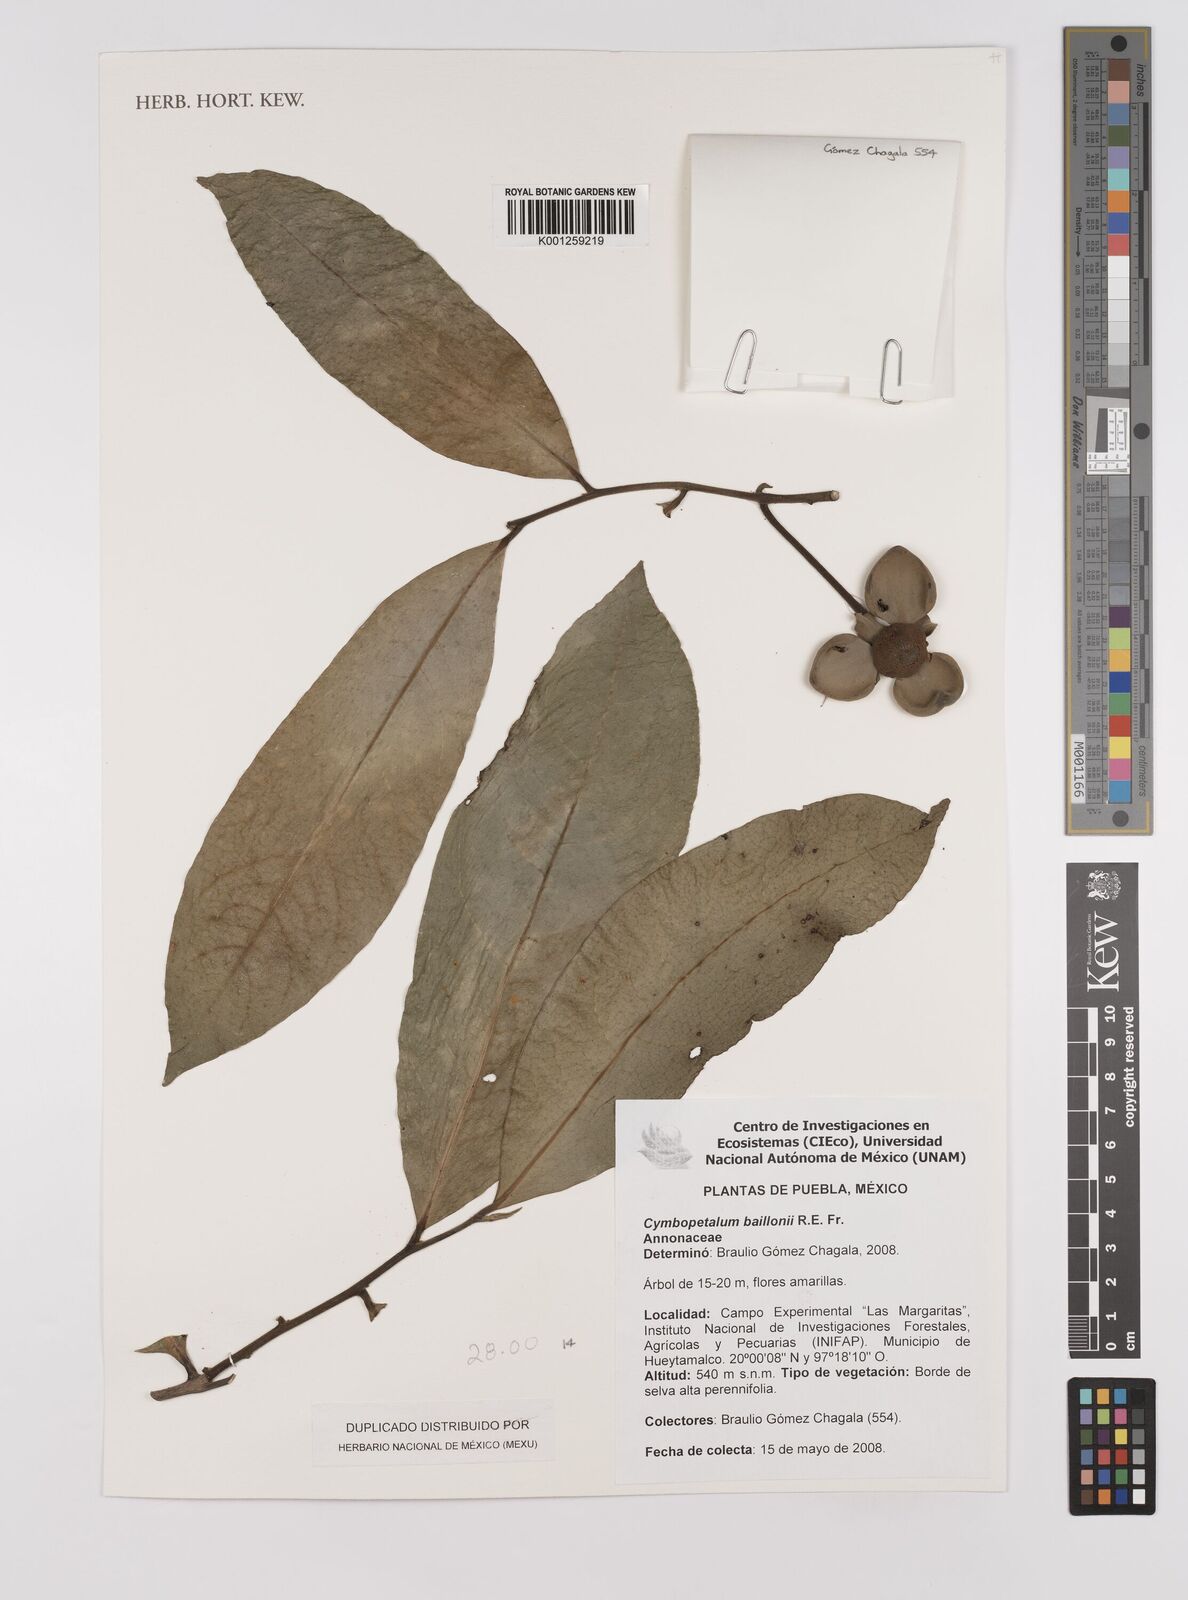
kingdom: Plantae
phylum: Tracheophyta
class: Magnoliopsida
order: Magnoliales
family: Annonaceae
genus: Cymbopetalum
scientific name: Cymbopetalum baillonii
